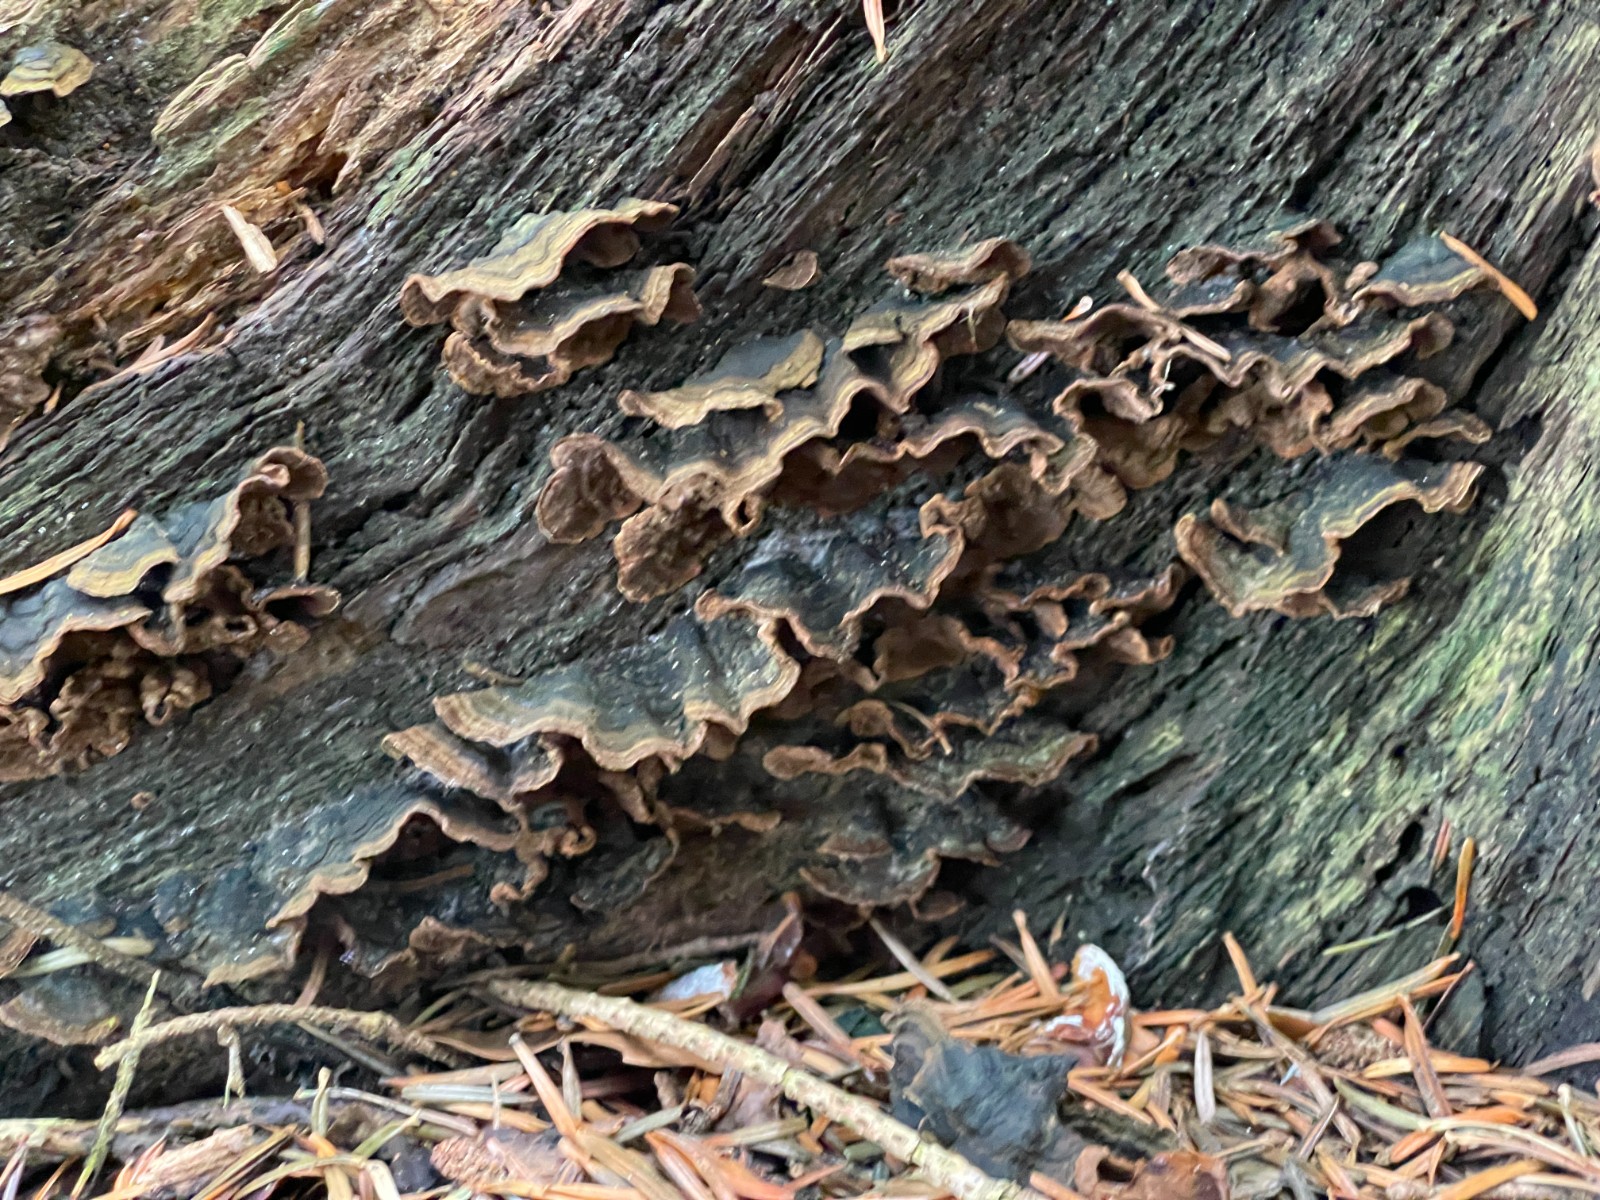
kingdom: Fungi
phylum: Basidiomycota
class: Agaricomycetes
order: Hymenochaetales
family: Hymenochaetaceae
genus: Hymenochaete
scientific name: Hymenochaete rubiginosa
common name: stiv ruslædersvamp
